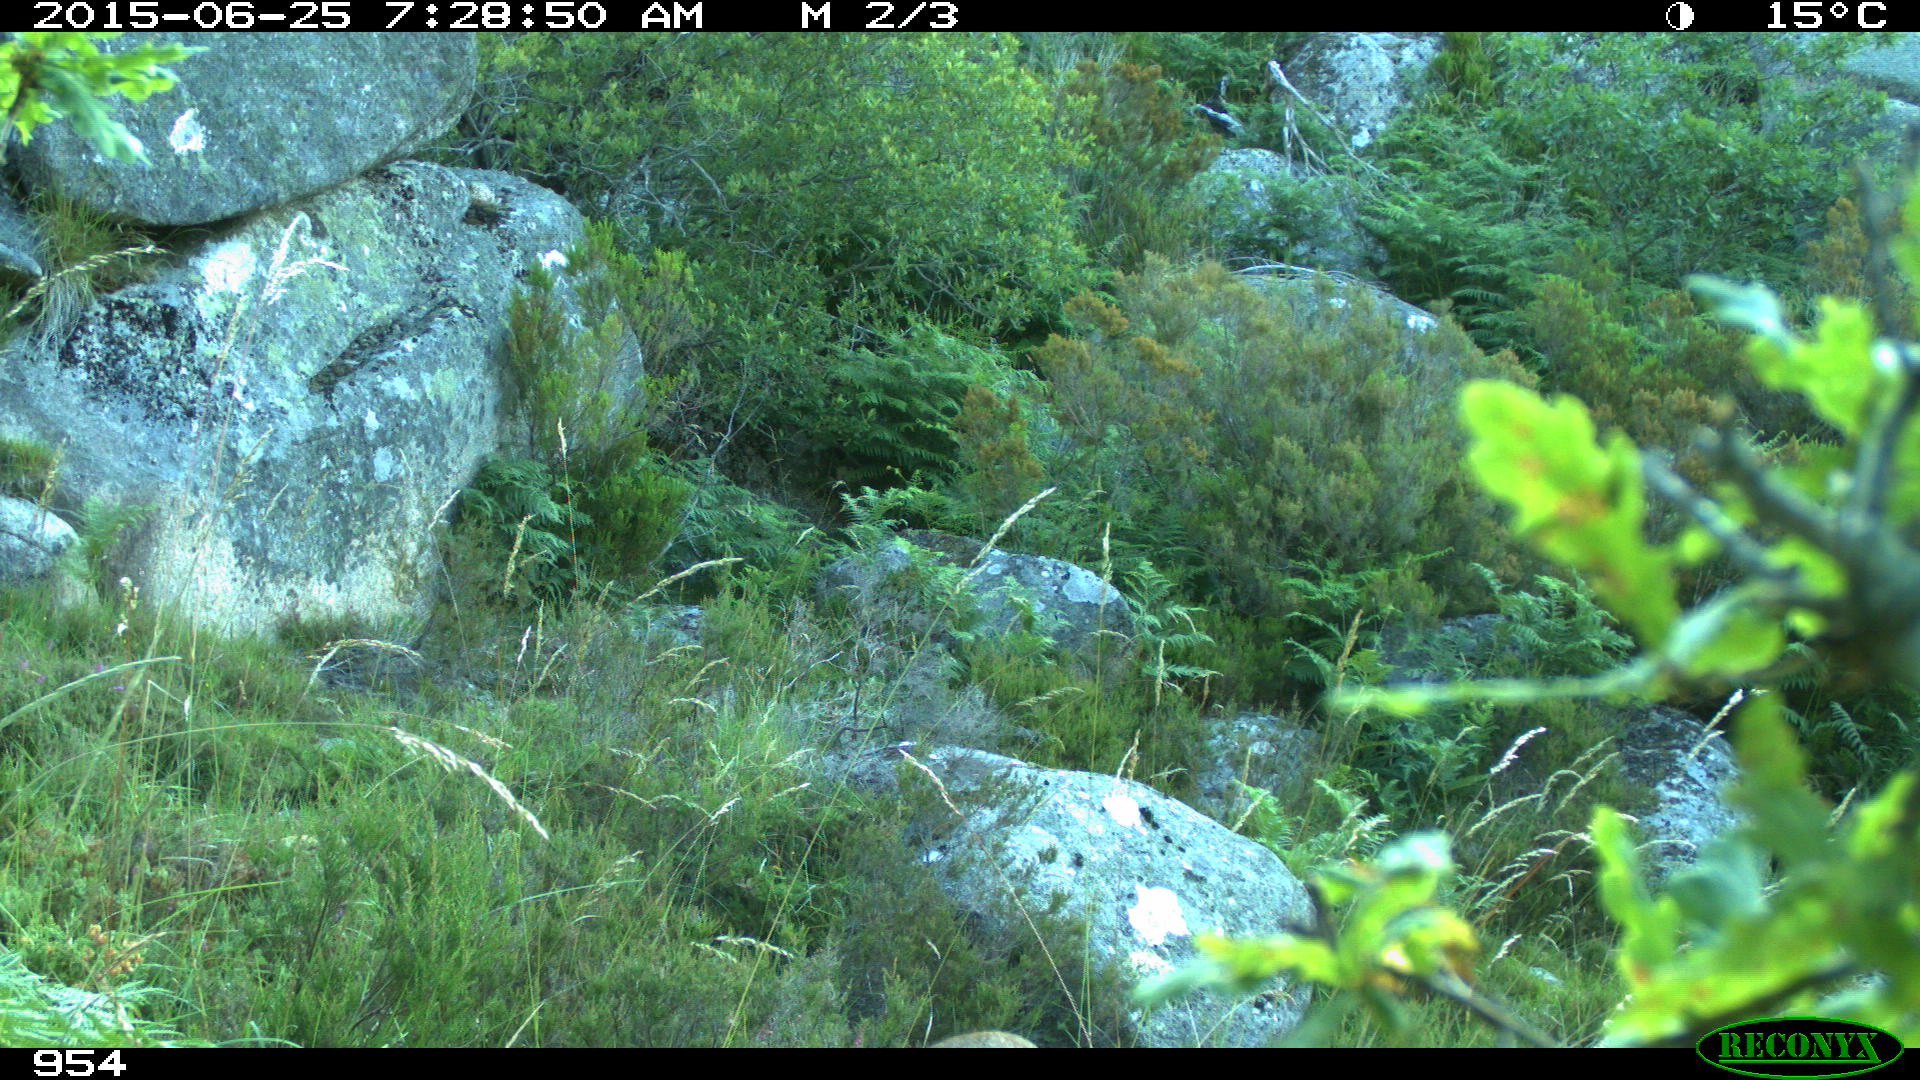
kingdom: Animalia
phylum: Chordata
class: Mammalia
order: Artiodactyla
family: Cervidae
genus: Capreolus
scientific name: Capreolus capreolus
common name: Western roe deer
